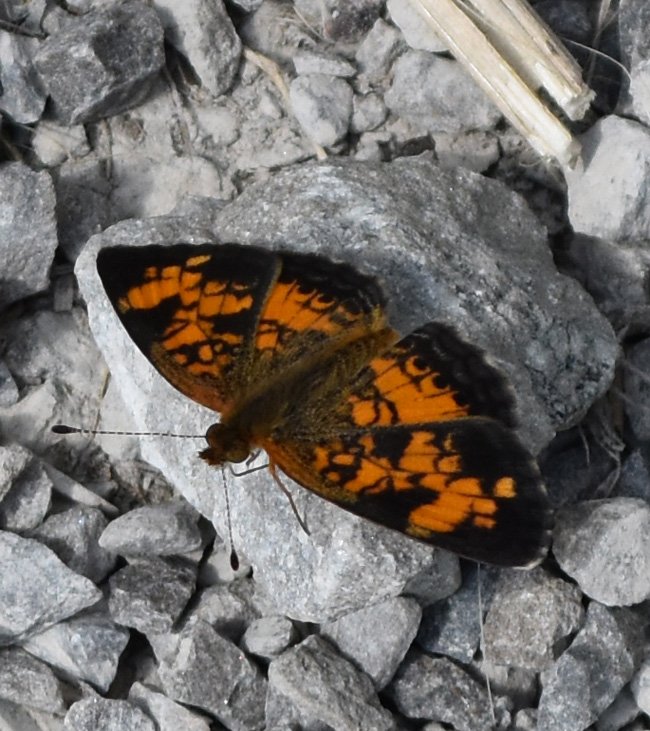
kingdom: Animalia
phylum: Arthropoda
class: Insecta
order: Lepidoptera
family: Nymphalidae
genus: Phyciodes
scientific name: Phyciodes tharos
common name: Pearl Crescent
